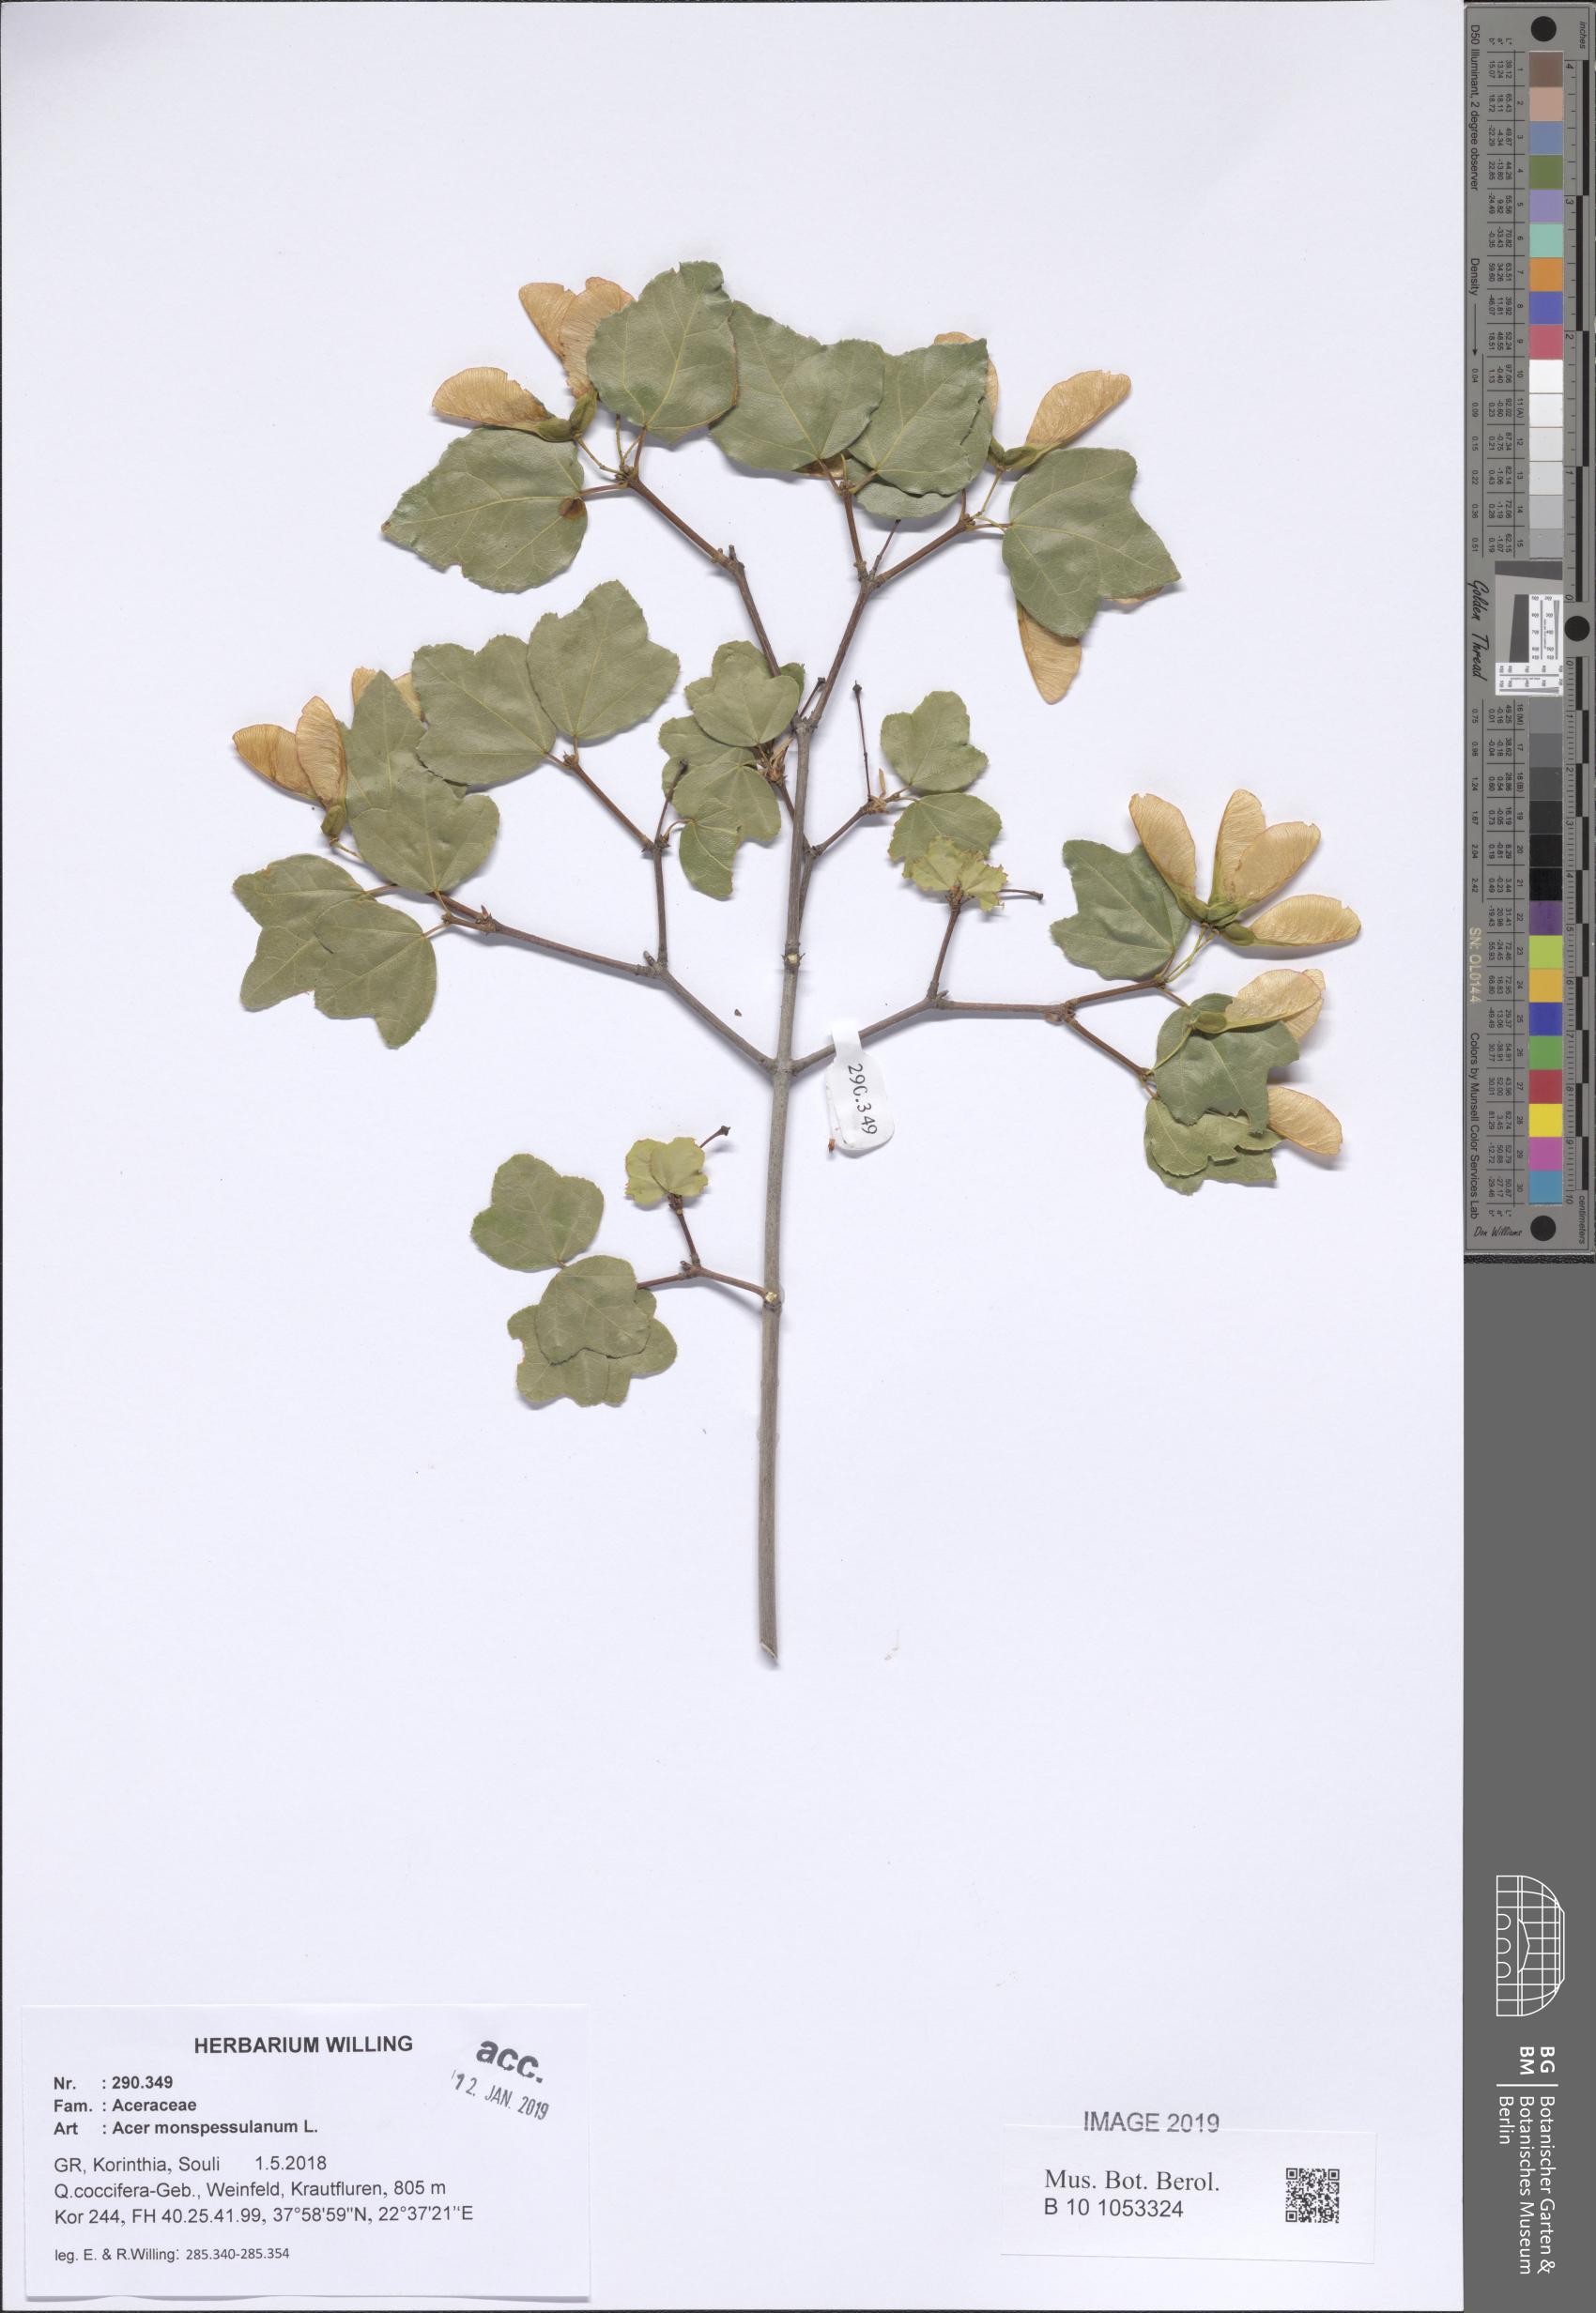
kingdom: Plantae
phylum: Tracheophyta
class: Magnoliopsida
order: Sapindales
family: Sapindaceae
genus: Acer
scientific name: Acer monspessulanum
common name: Montpellier maple
